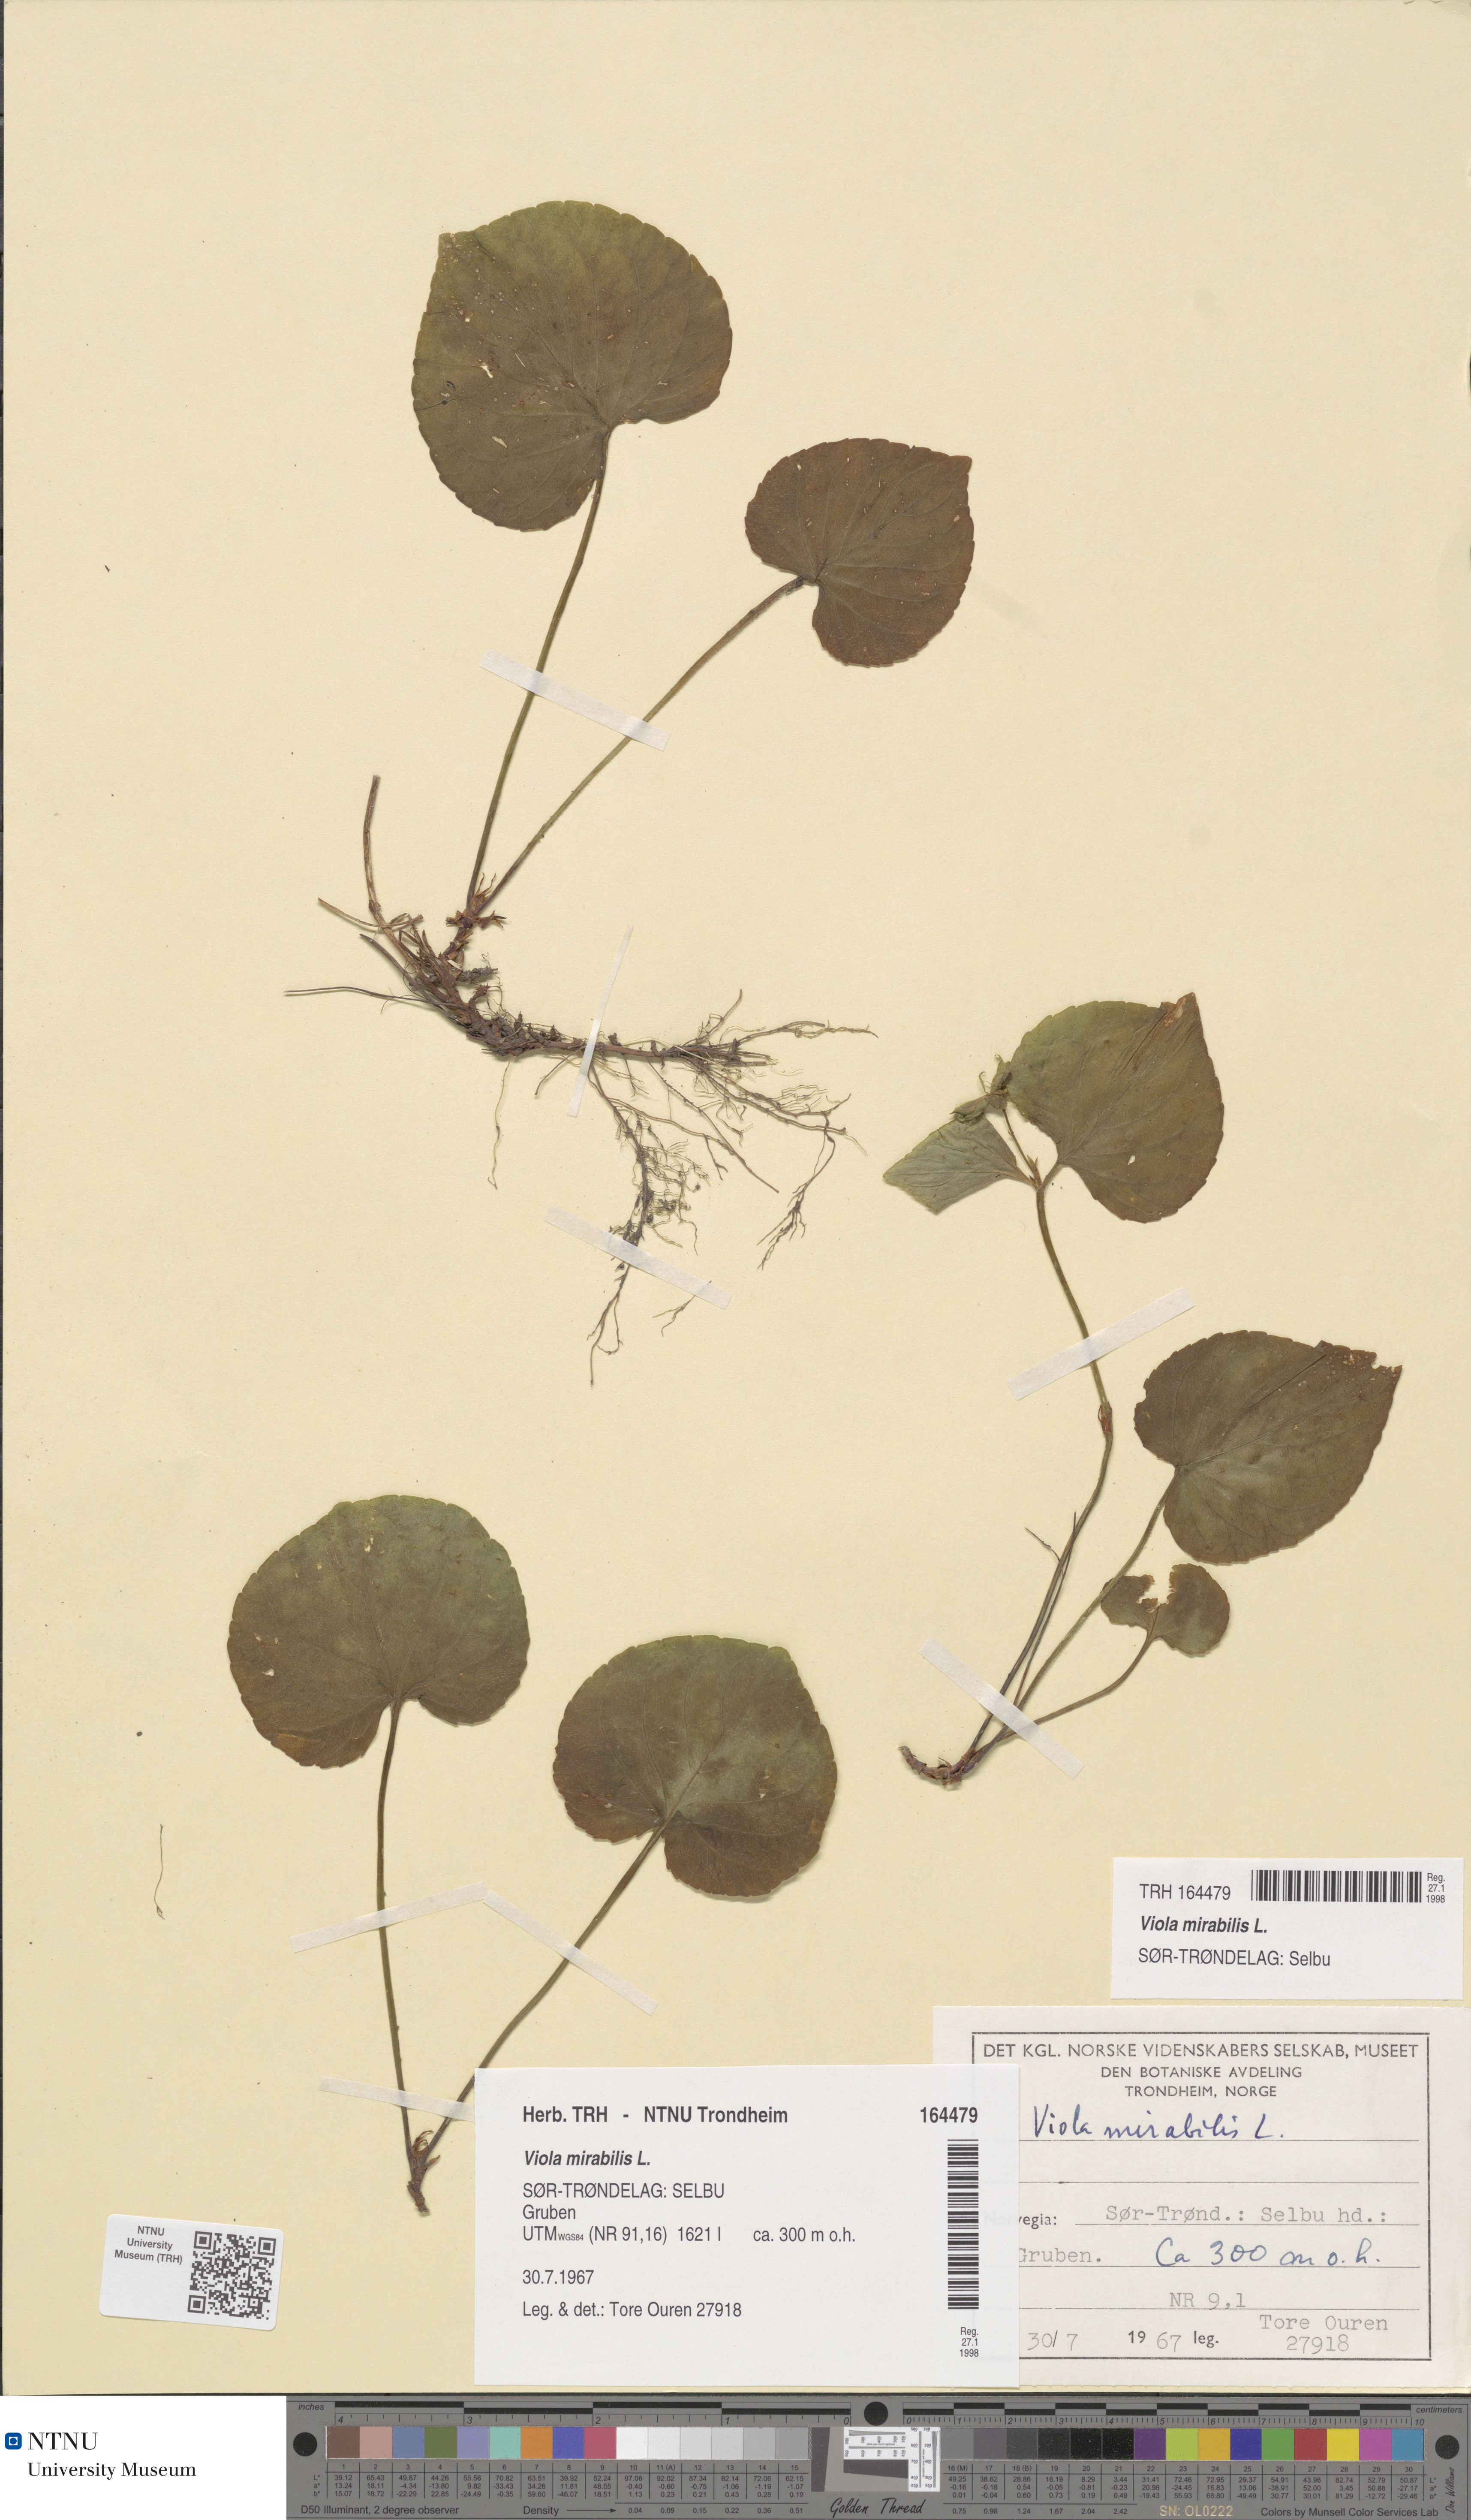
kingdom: Plantae
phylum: Tracheophyta
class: Magnoliopsida
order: Malpighiales
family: Violaceae
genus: Viola
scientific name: Viola mirabilis
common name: Wonder violet
